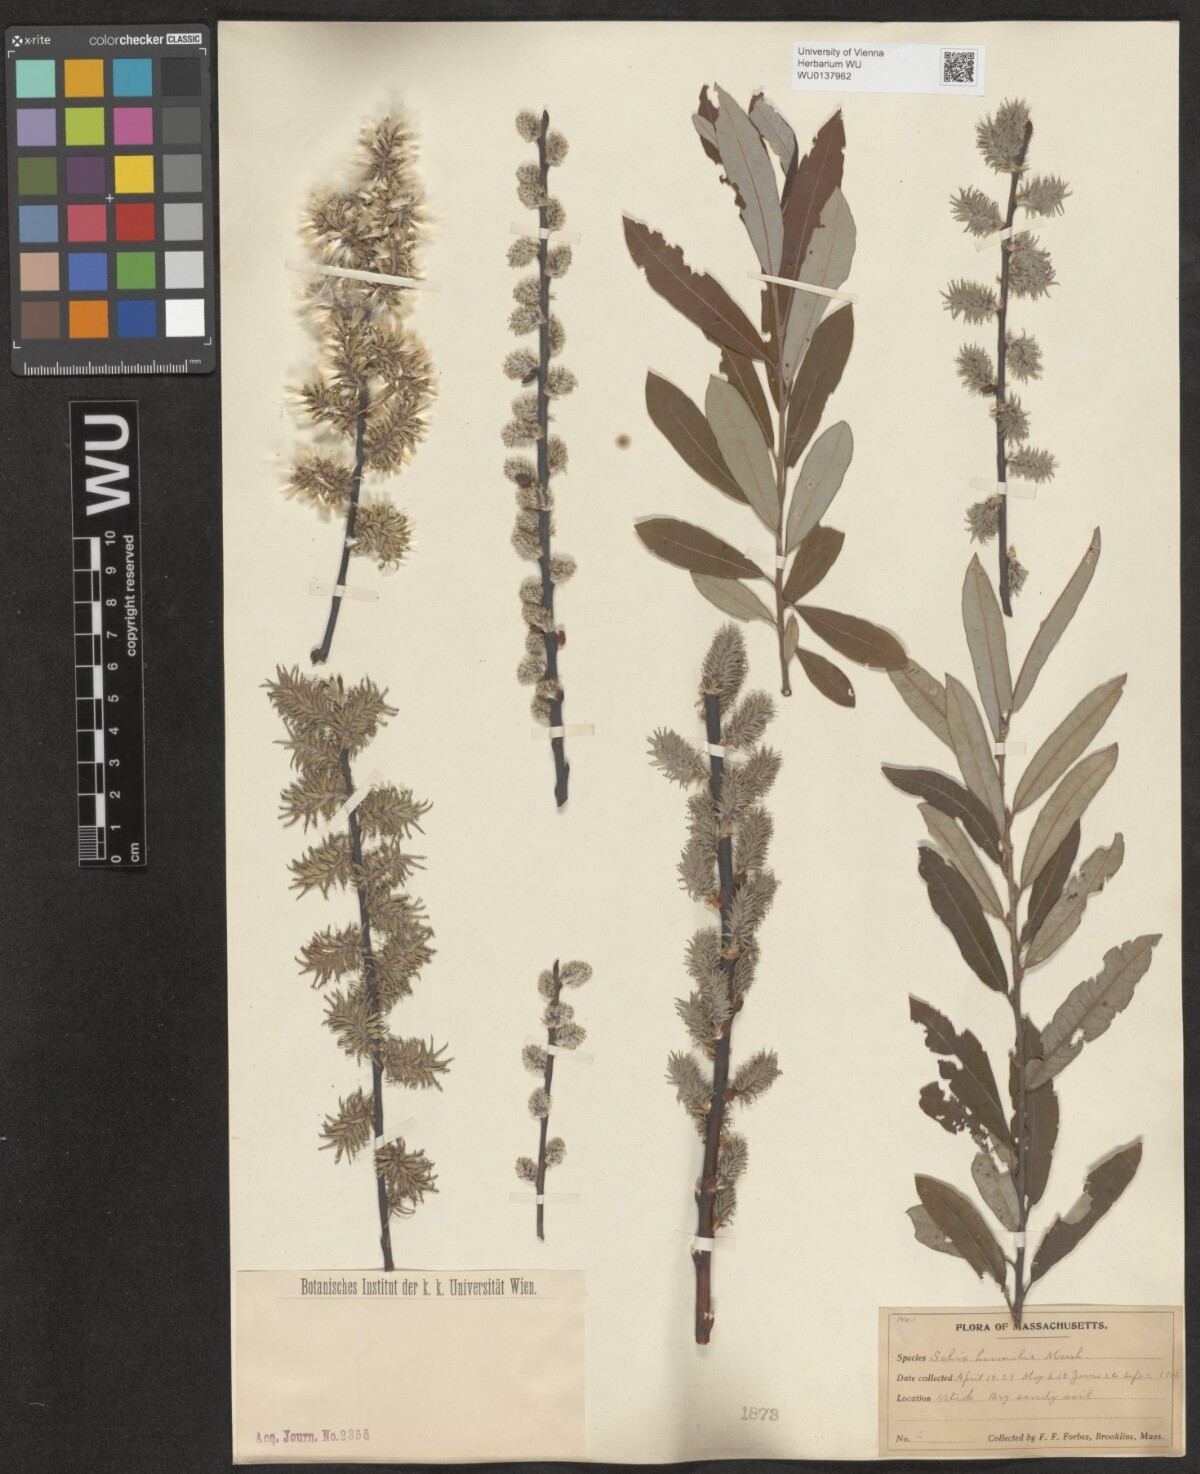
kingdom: Plantae
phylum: Tracheophyta
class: Magnoliopsida
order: Malpighiales
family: Salicaceae
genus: Salix
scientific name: Salix humilis
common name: Prairie willow
